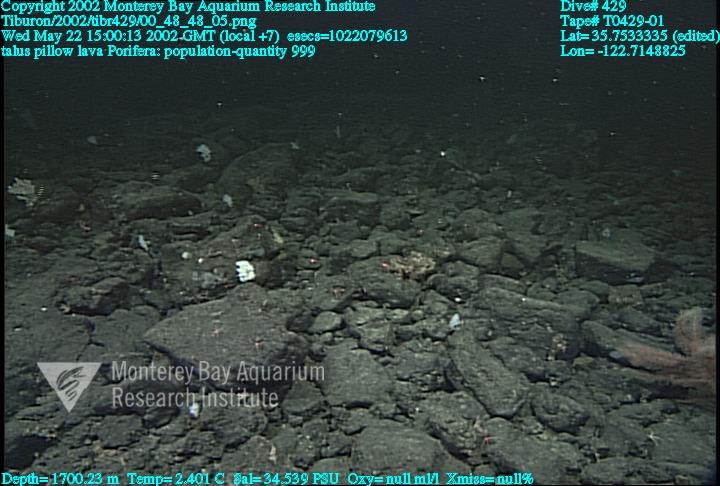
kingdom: Animalia
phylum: Porifera
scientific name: Porifera
